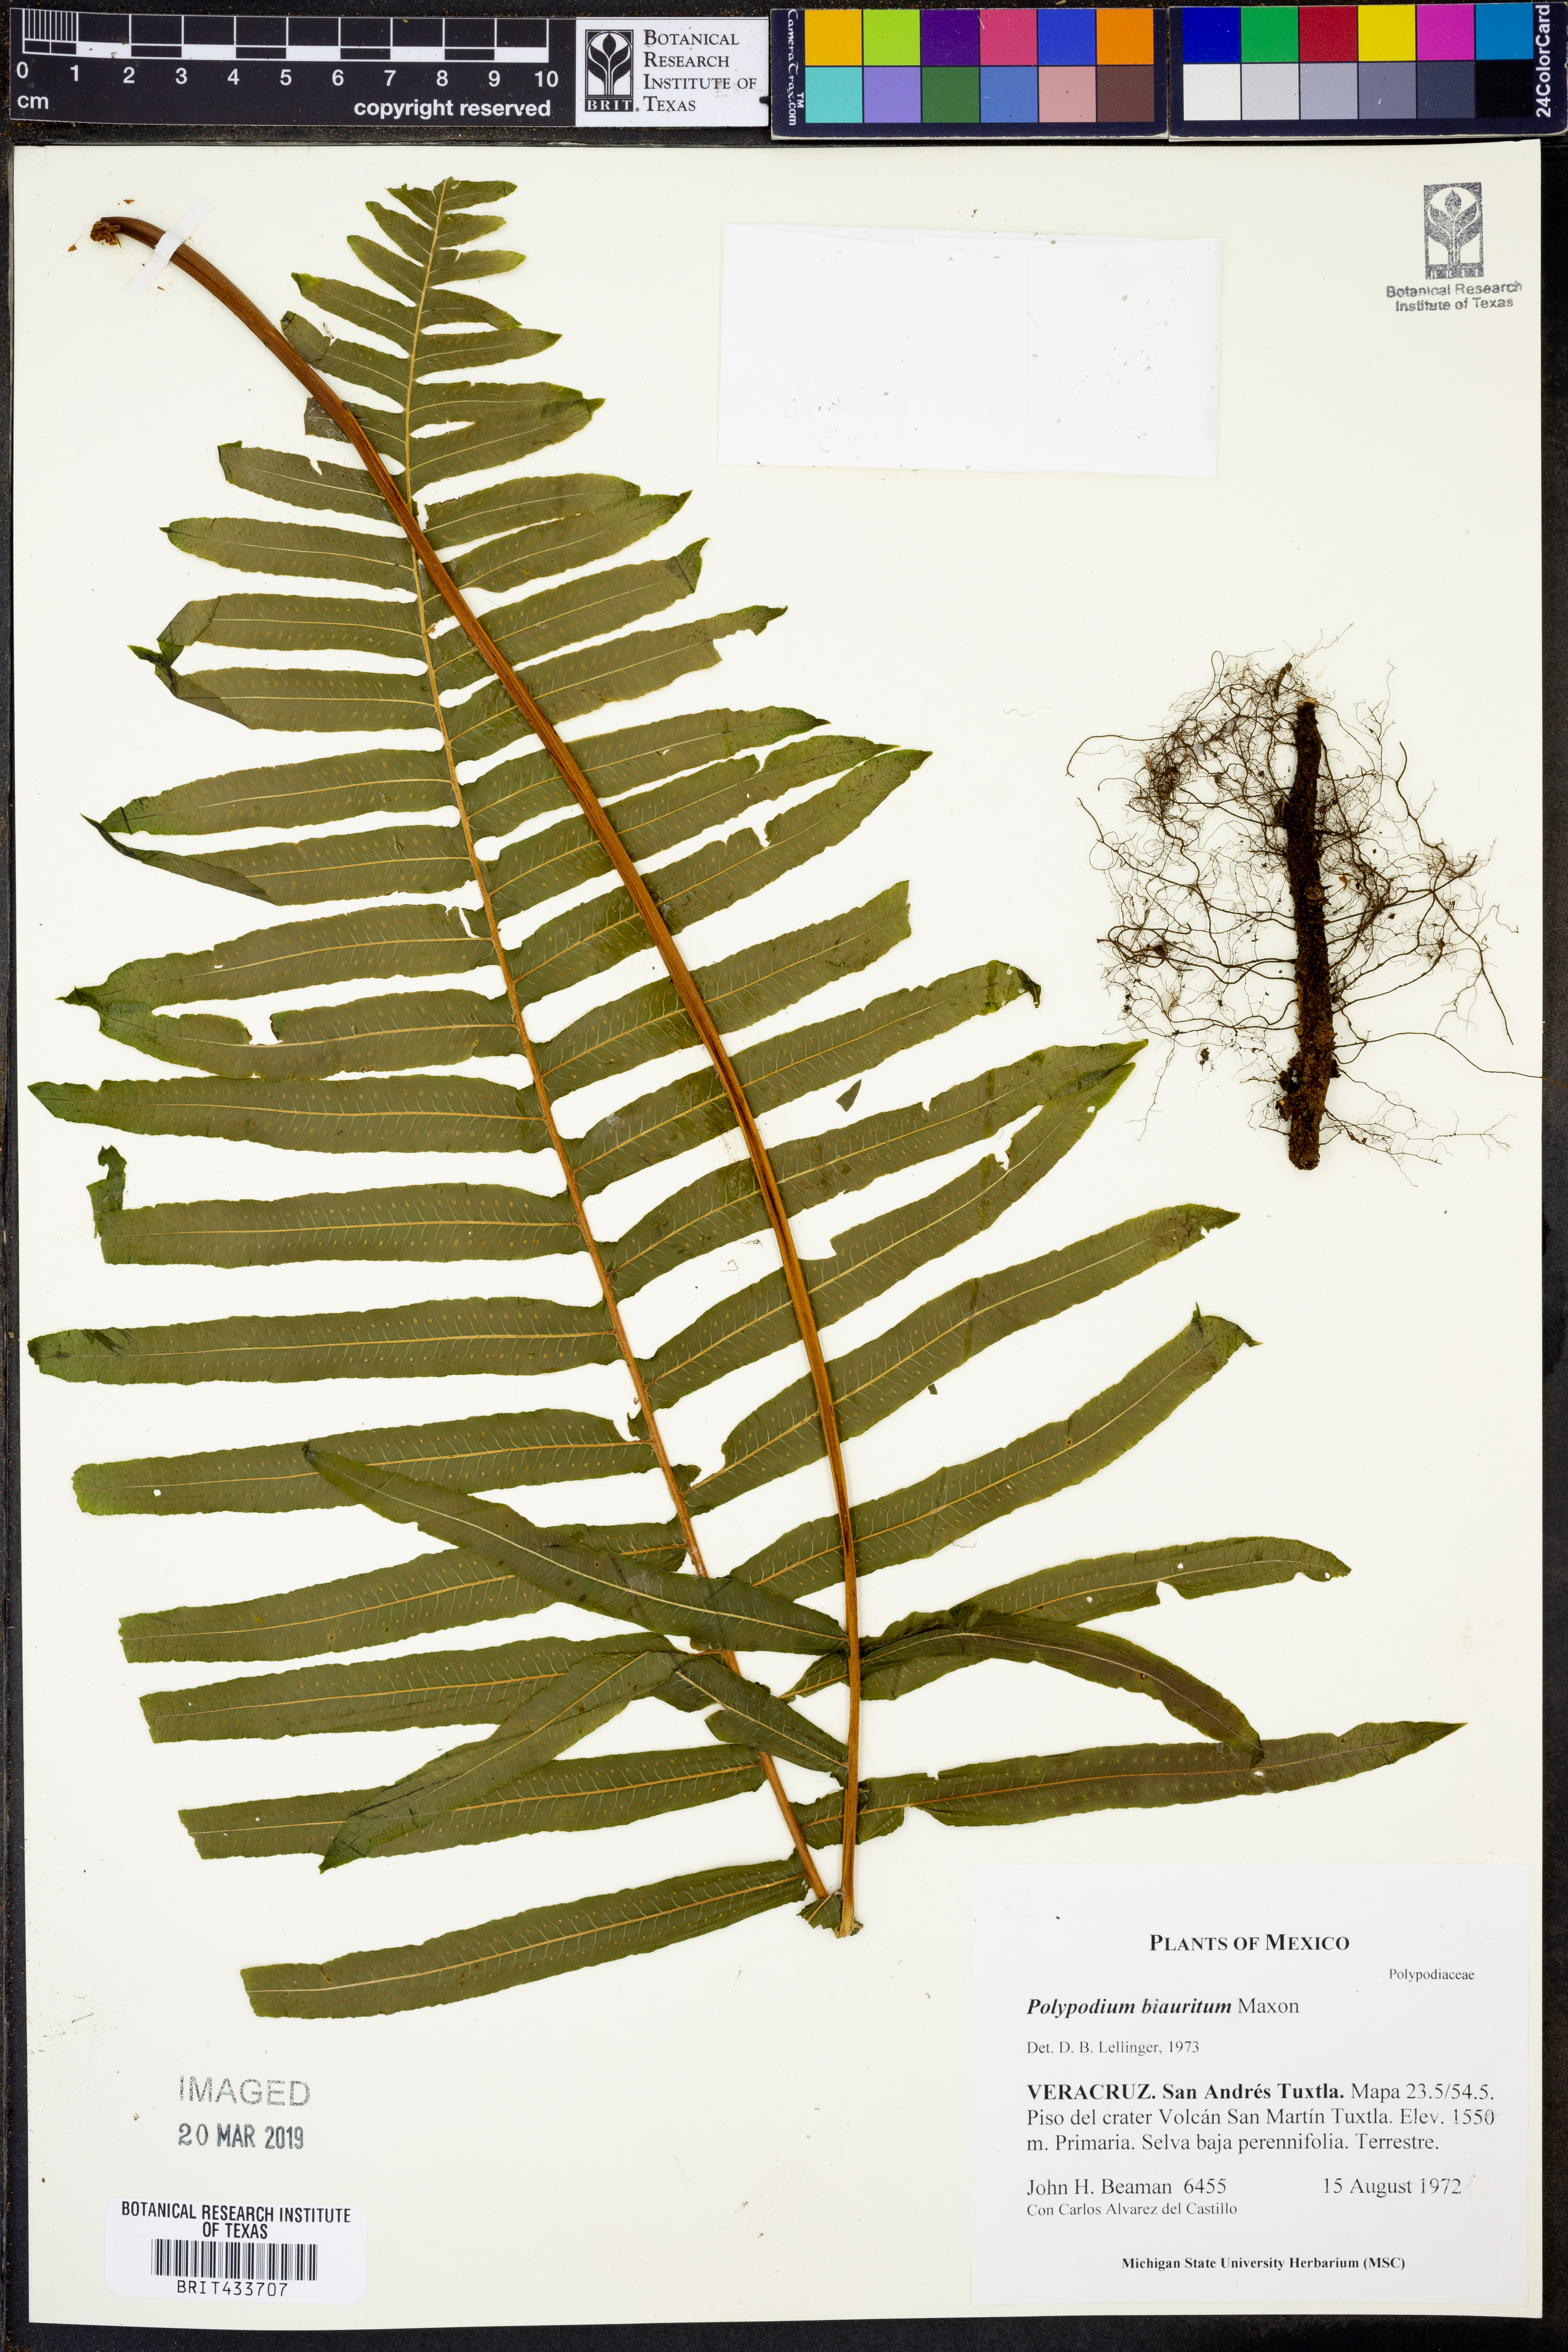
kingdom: Plantae
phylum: Tracheophyta
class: Polypodiopsida
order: Polypodiales
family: Polypodiaceae
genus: Pecluma
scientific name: Pecluma longepinnulata
